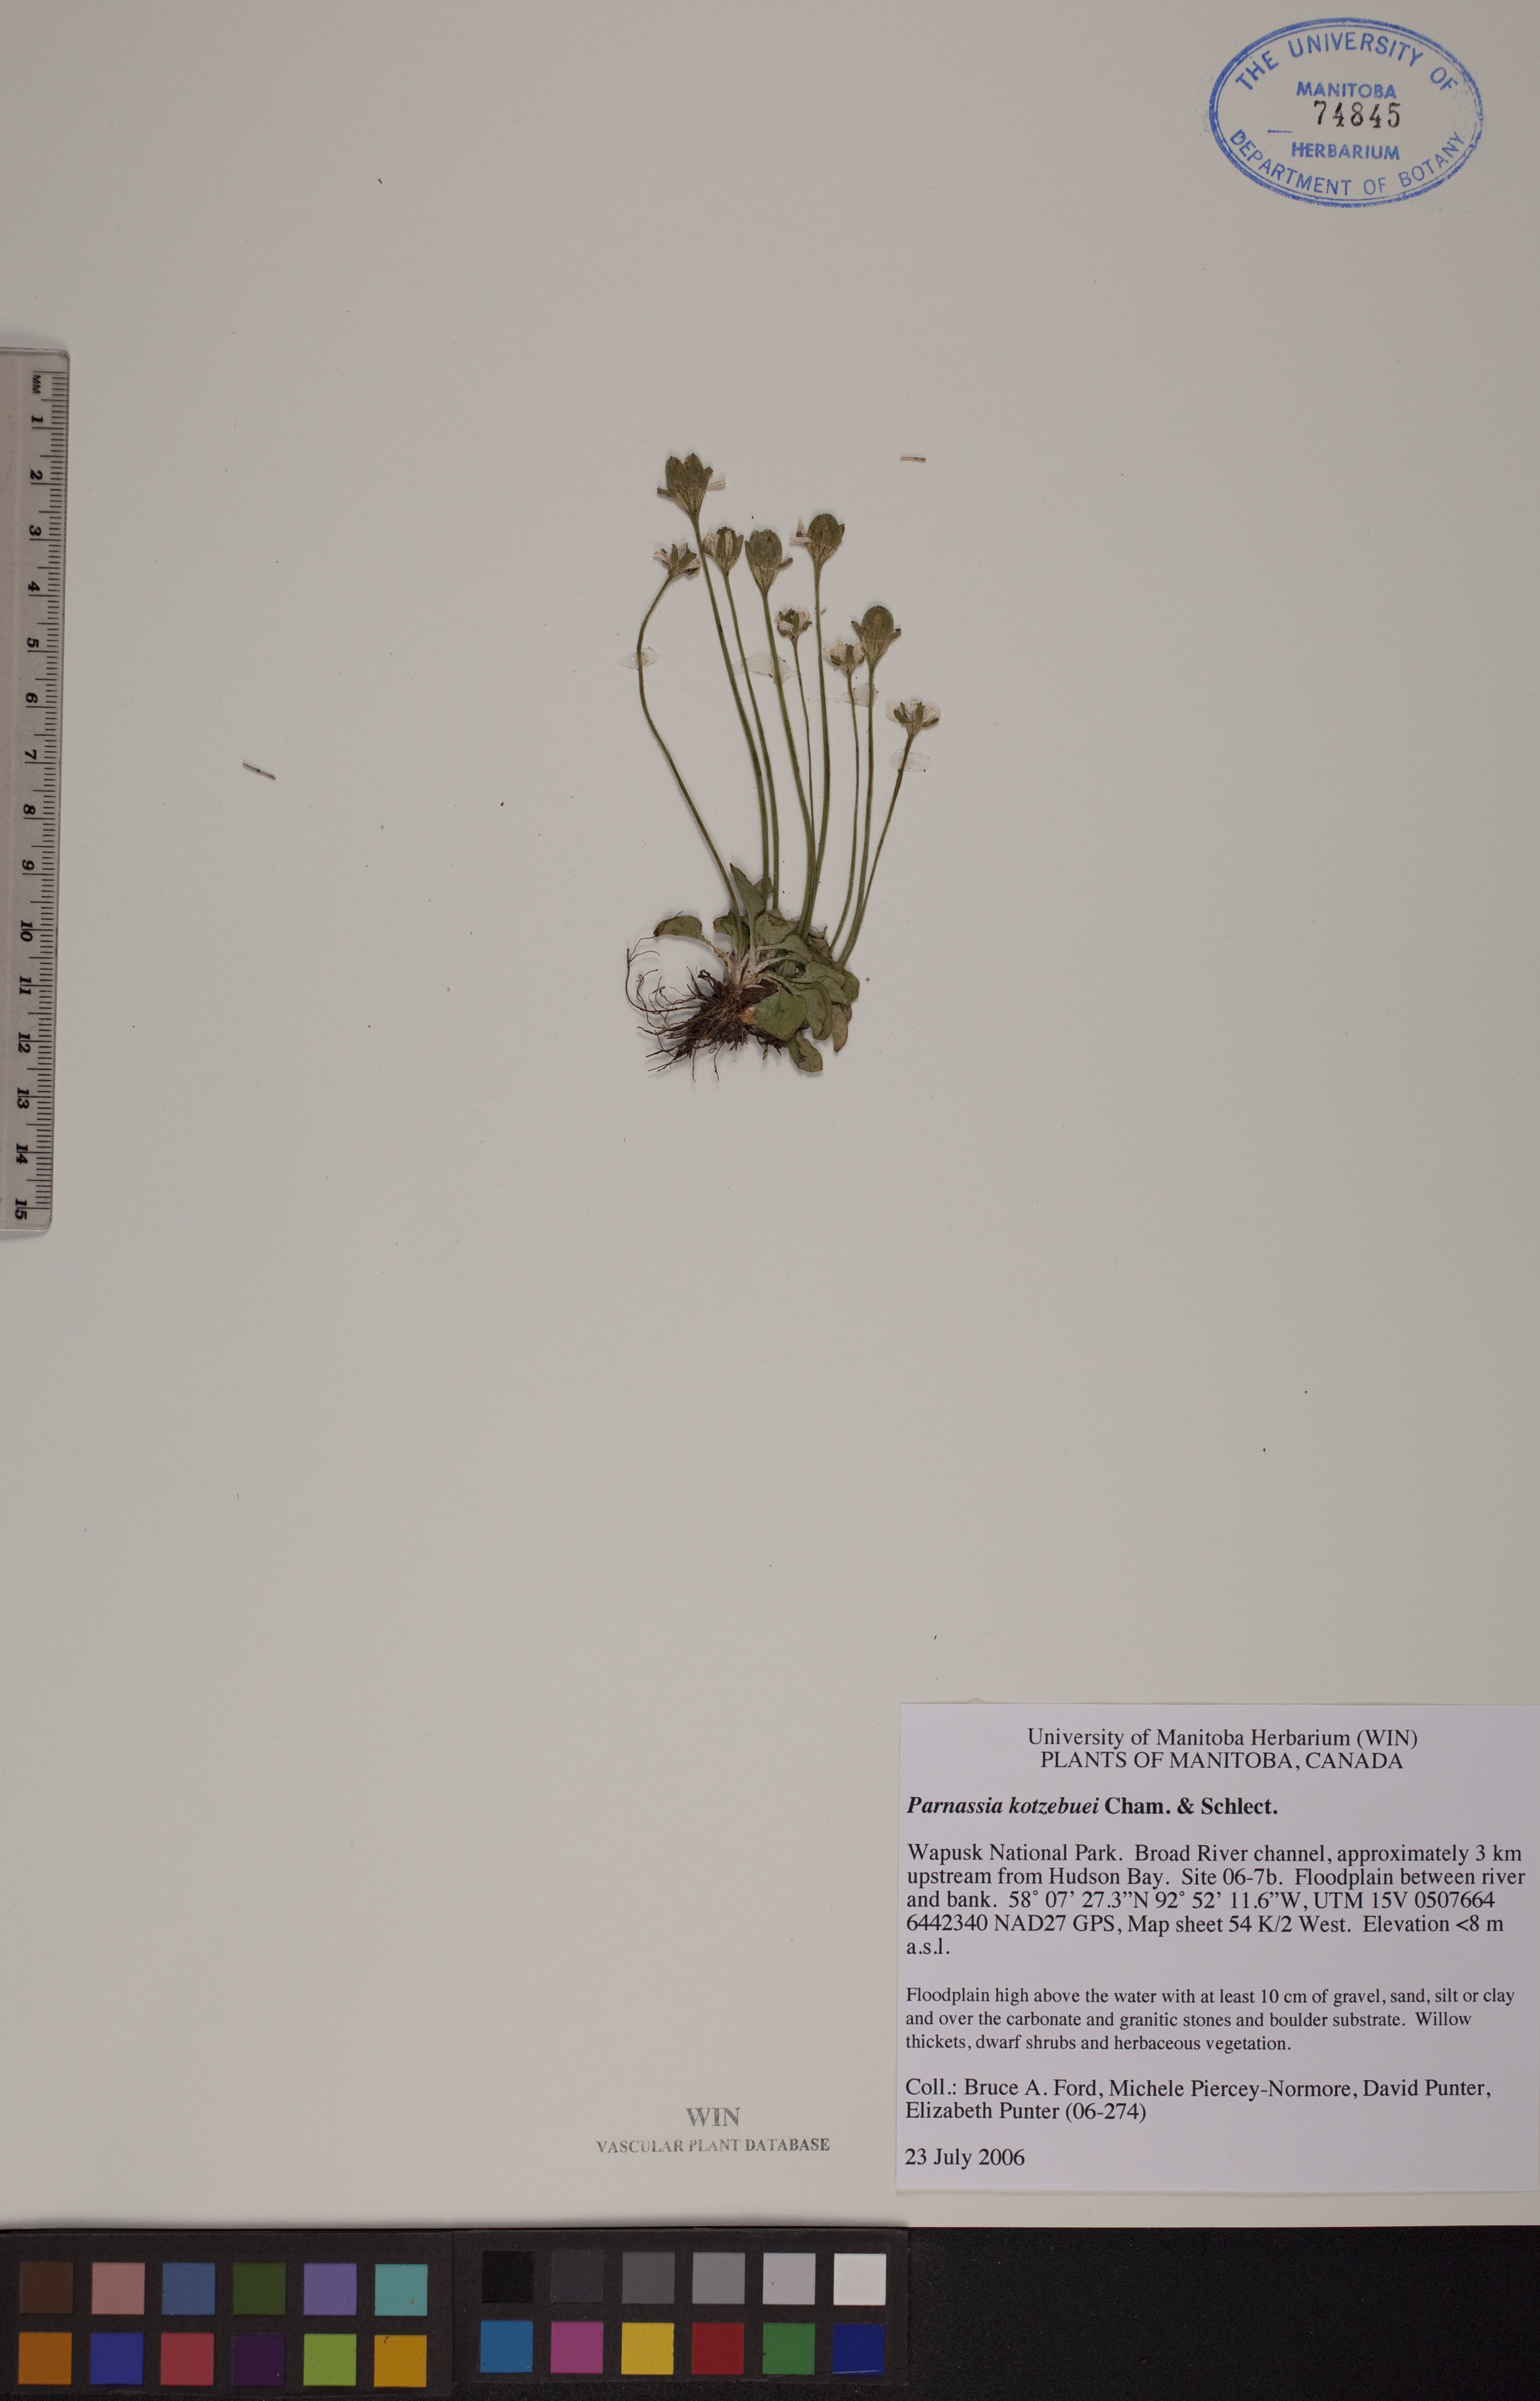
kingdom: Plantae
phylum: Tracheophyta
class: Magnoliopsida
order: Celastrales
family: Parnassiaceae
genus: Parnassia
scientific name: Parnassia kotzebuei
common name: Kotzebue's grass-of-parnassus
